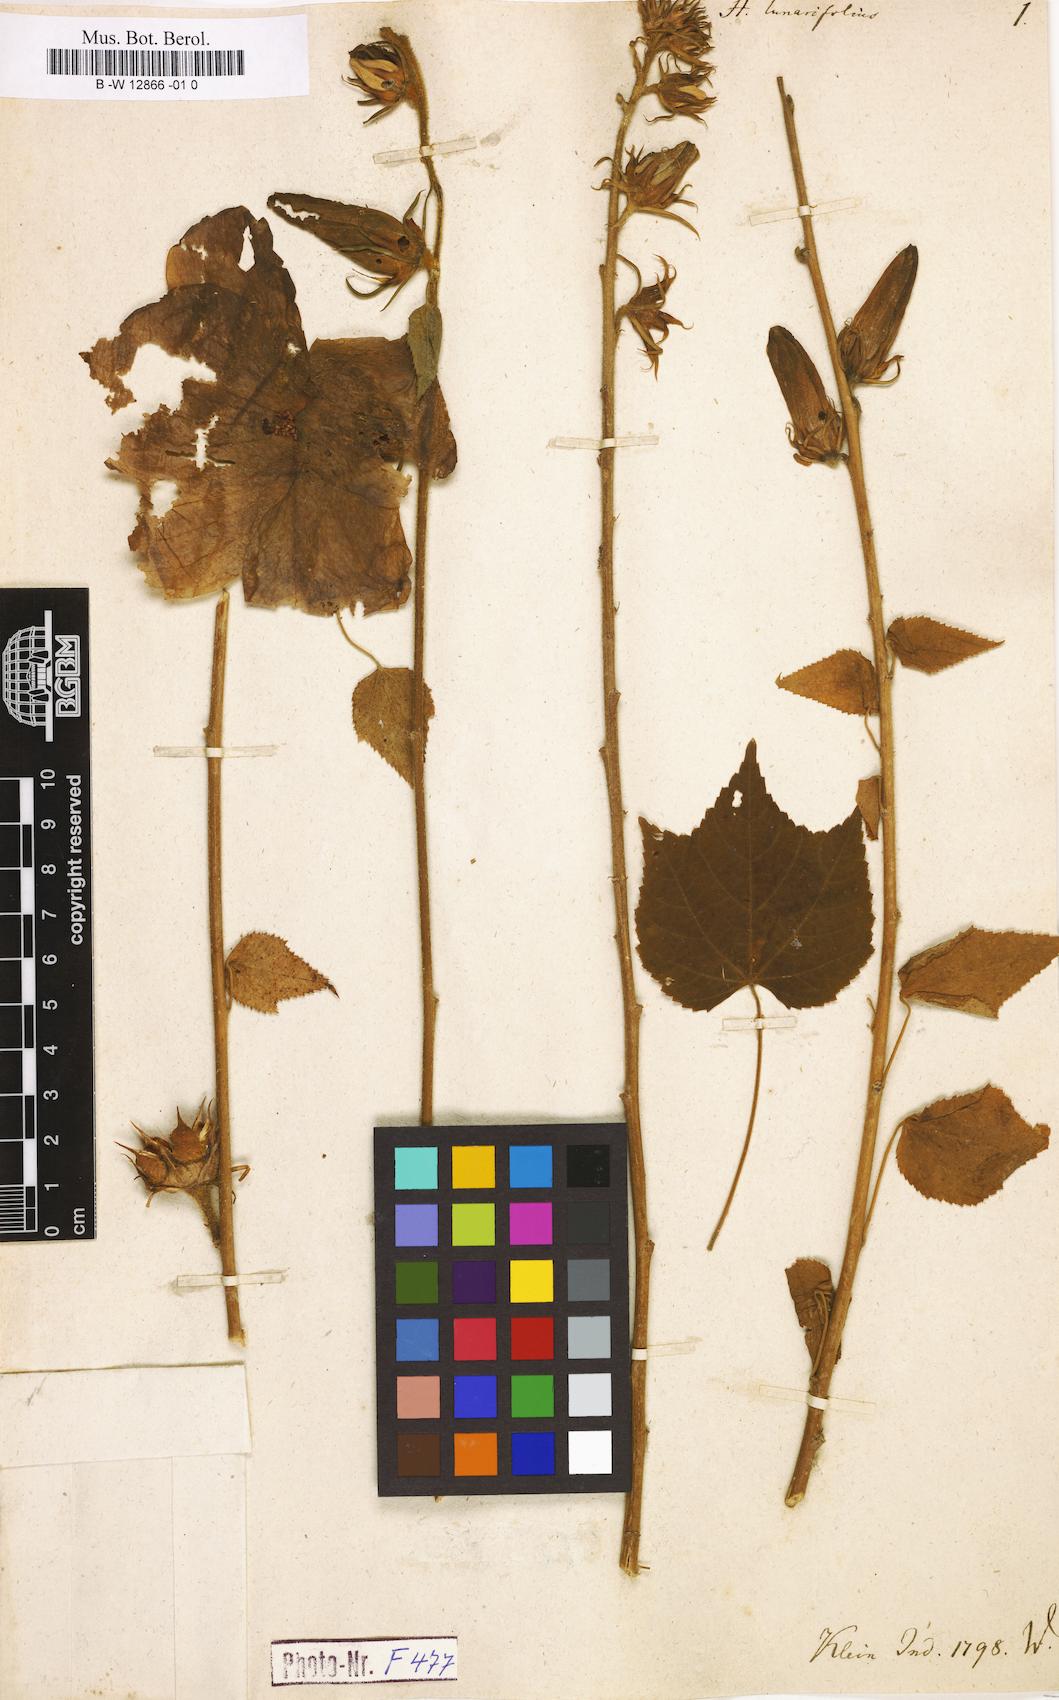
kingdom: Plantae
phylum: Tracheophyta
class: Magnoliopsida
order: Malvales
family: Malvaceae
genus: Hibiscus
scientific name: Hibiscus lunariifolius
